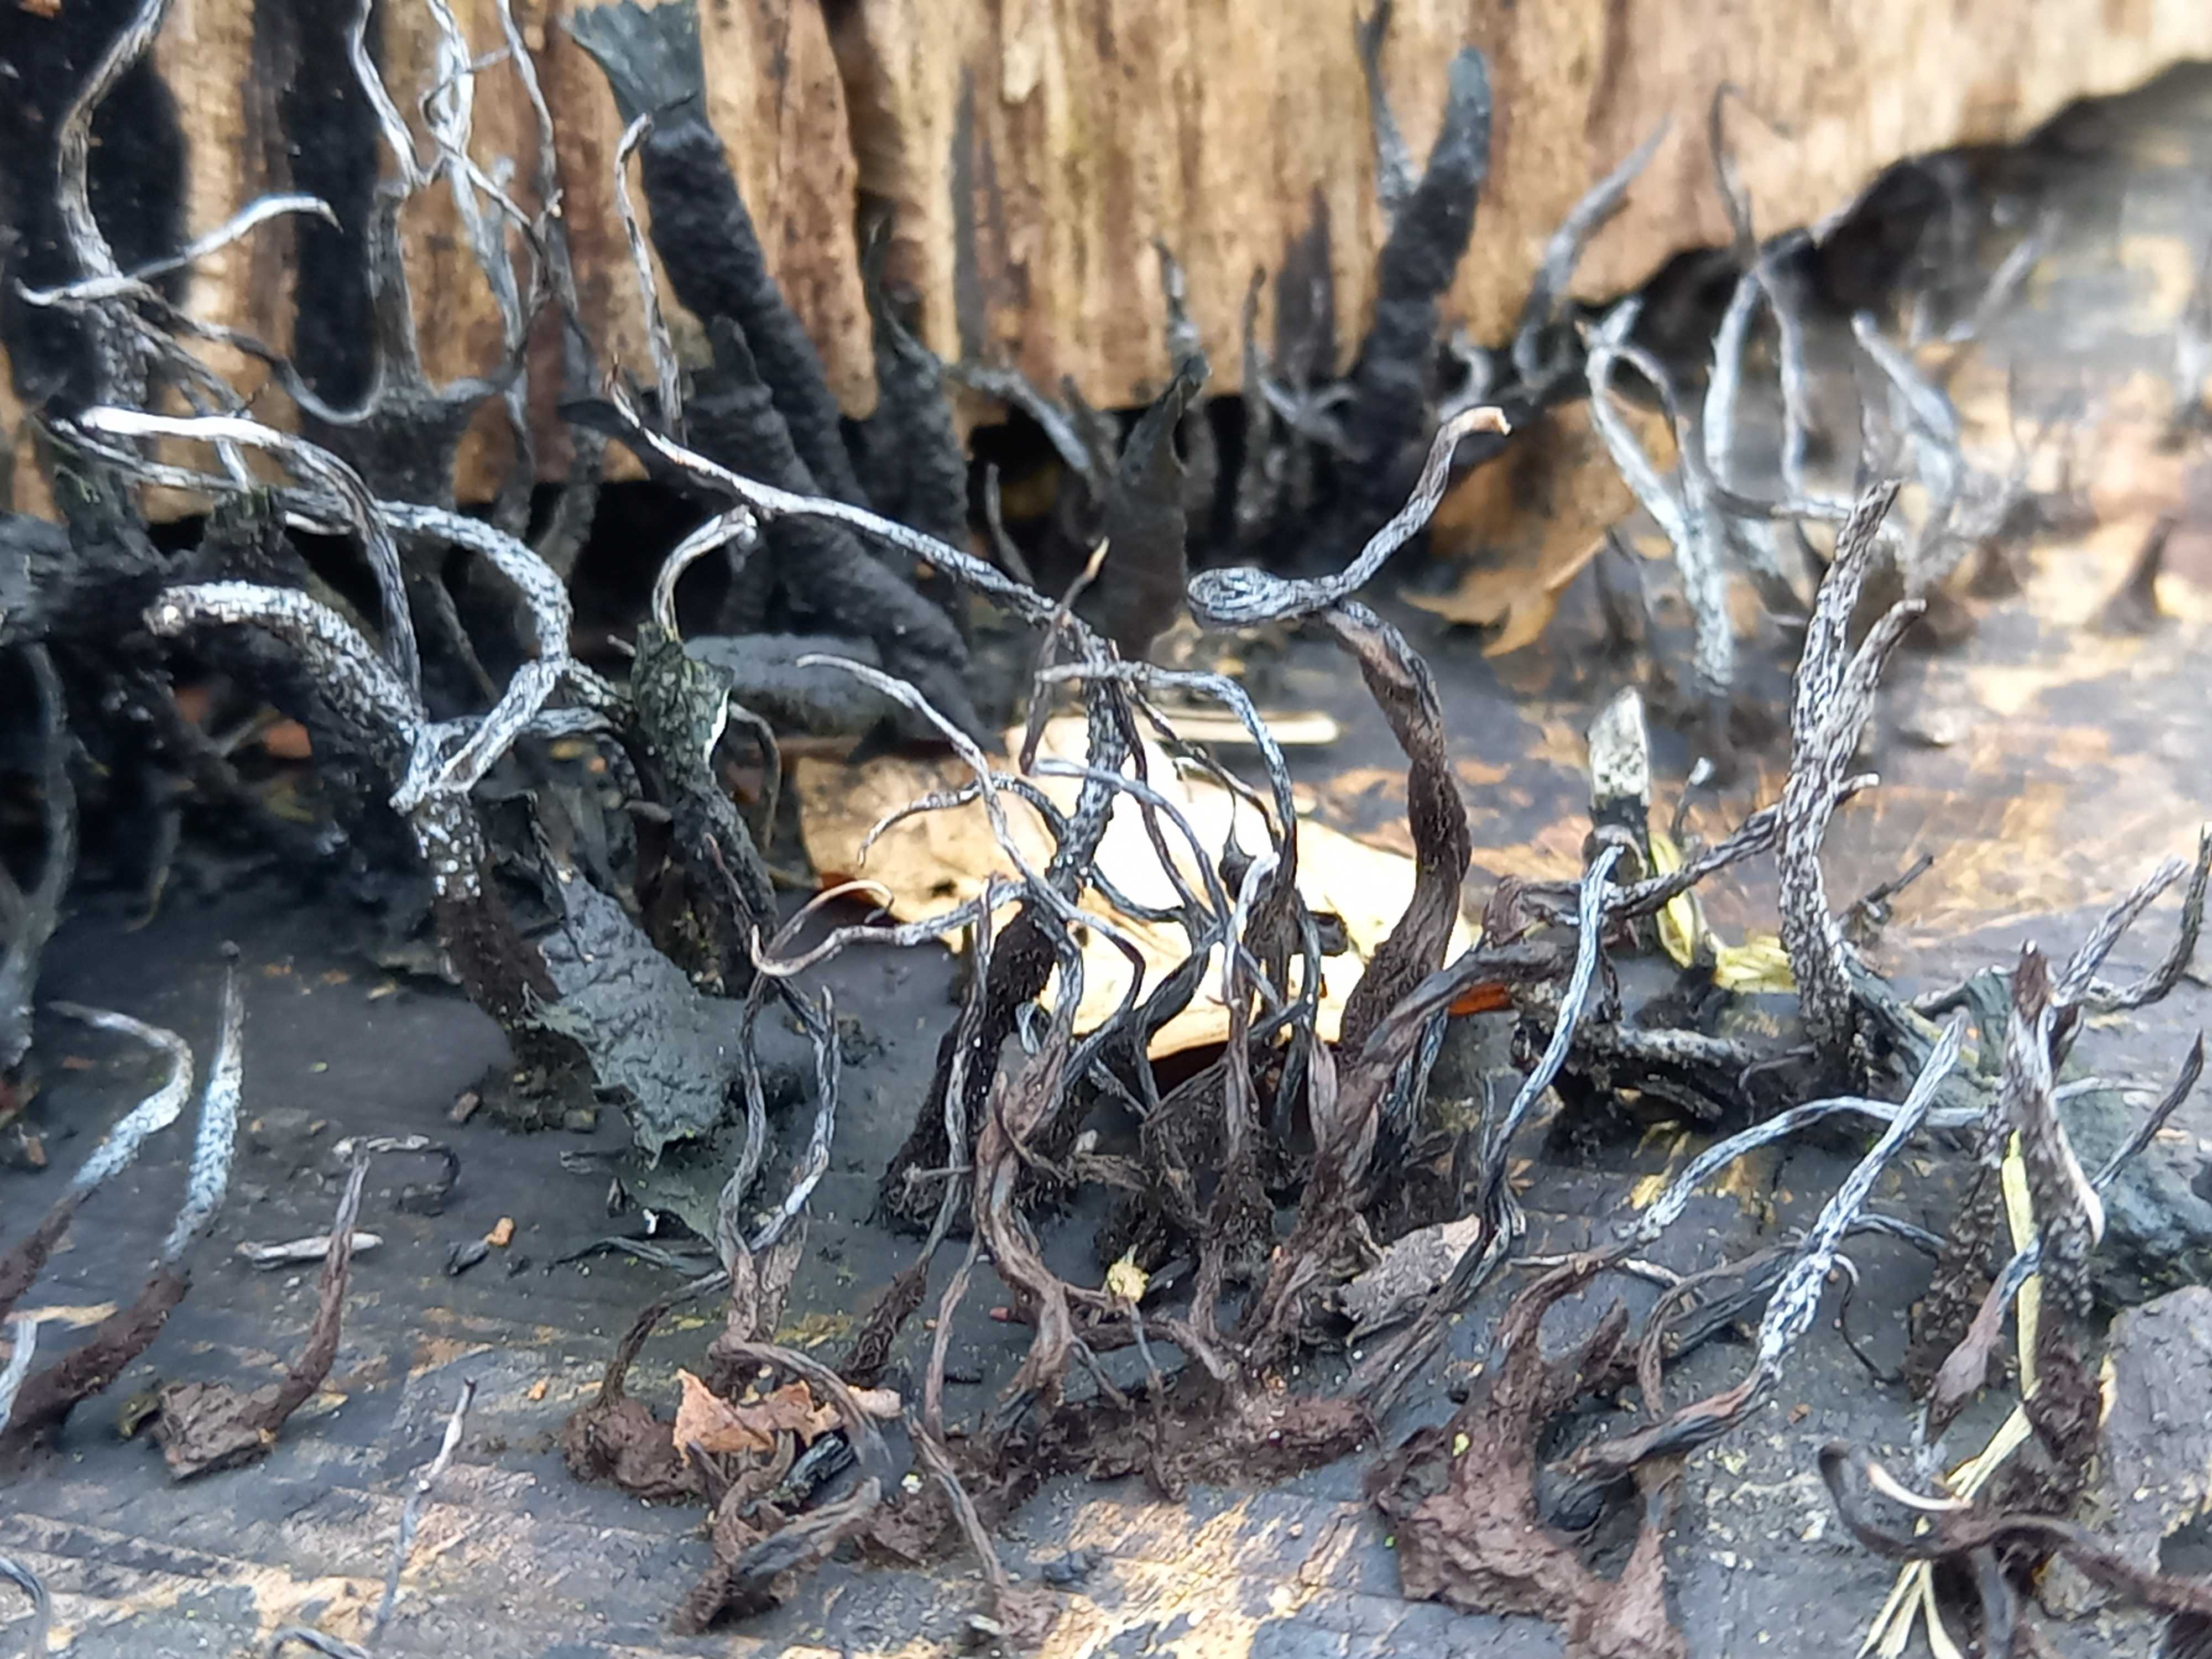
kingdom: Fungi
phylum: Ascomycota
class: Sordariomycetes
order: Xylariales
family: Xylariaceae
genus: Xylaria
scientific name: Xylaria hypoxylon
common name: grenet stødsvamp
